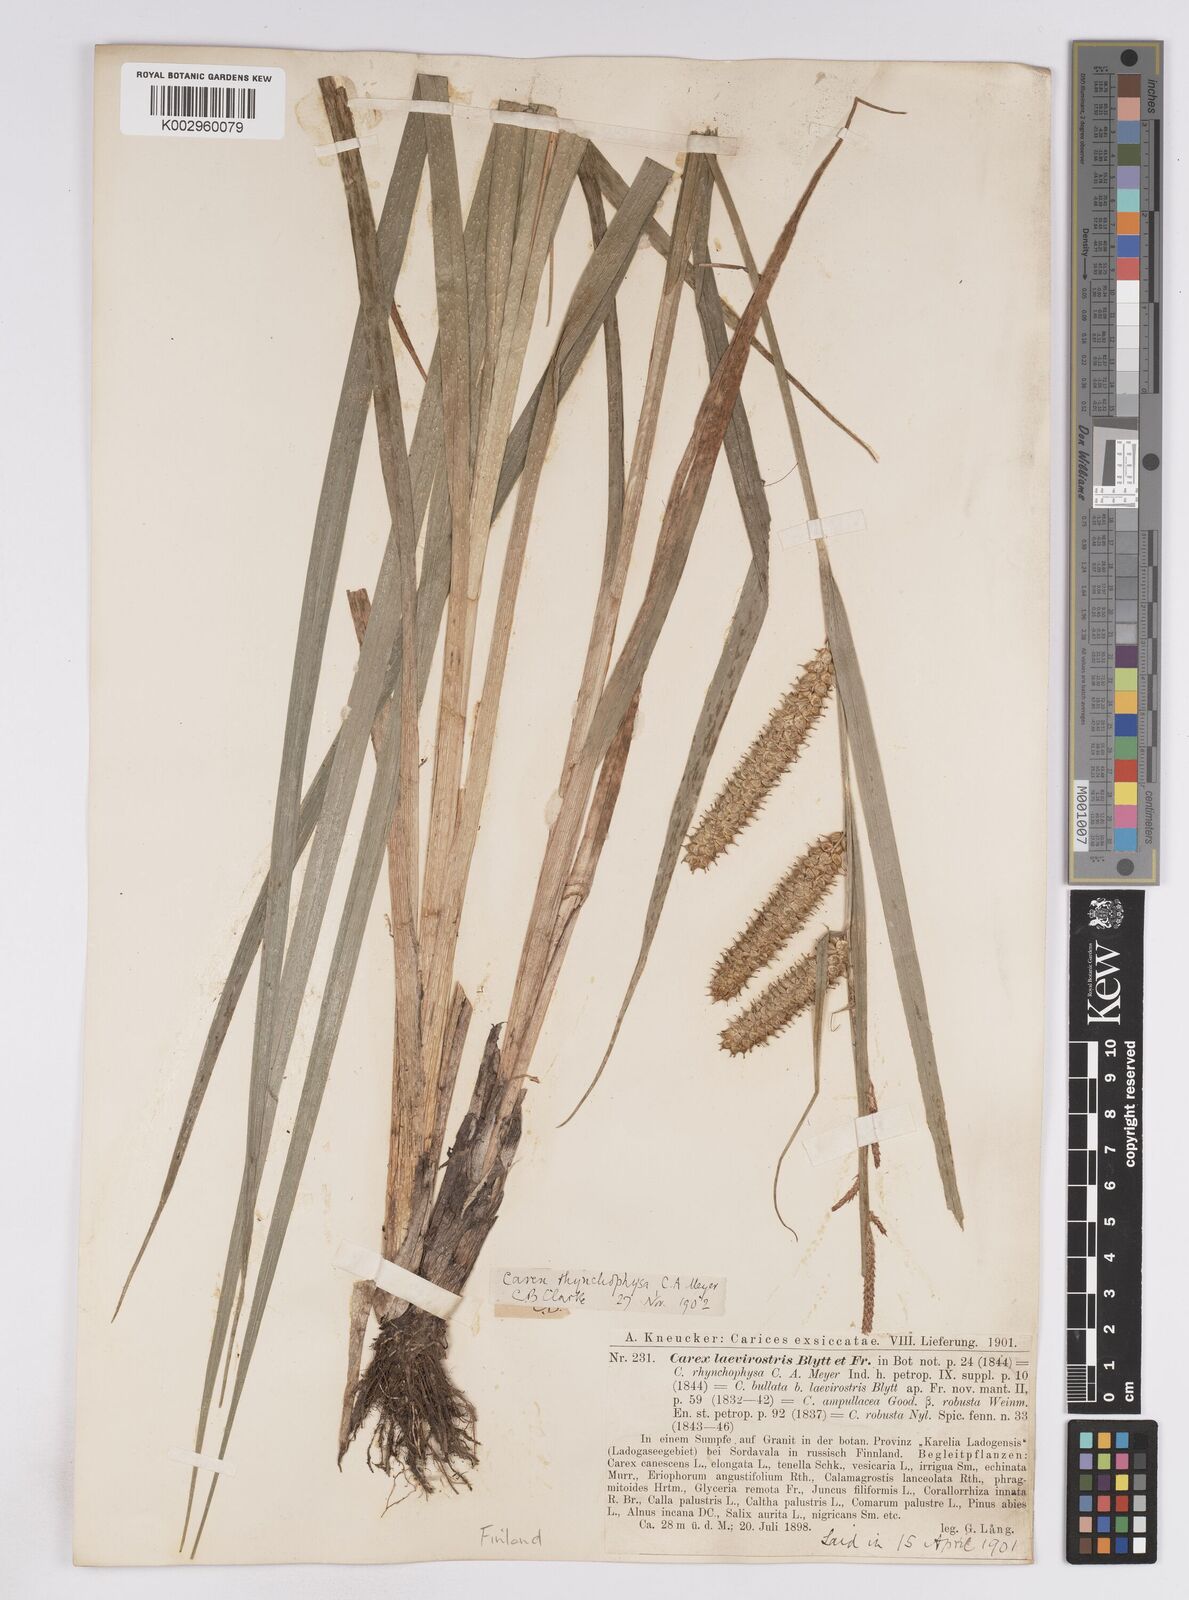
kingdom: Plantae
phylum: Tracheophyta
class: Liliopsida
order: Poales
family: Cyperaceae
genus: Carex
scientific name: Carex utriculata
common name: Beaked sedge
